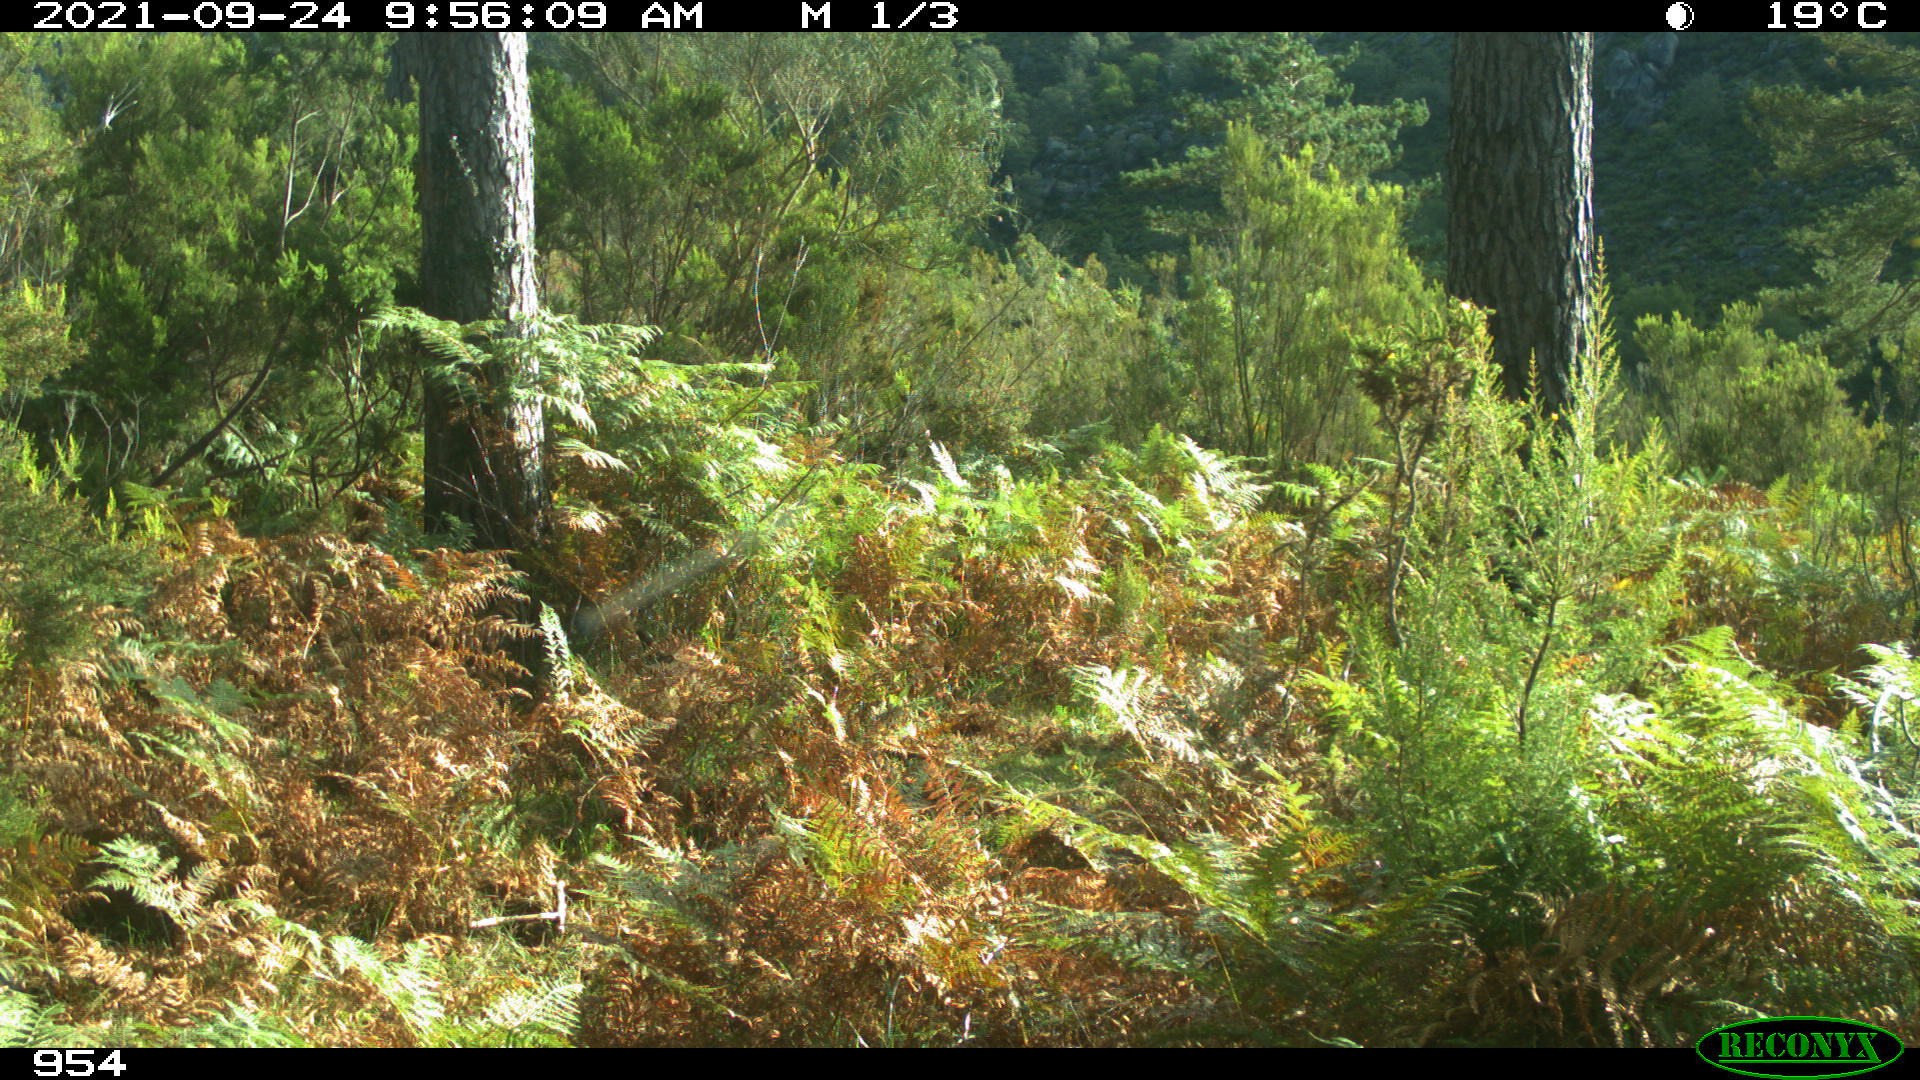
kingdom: Animalia
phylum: Chordata
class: Mammalia
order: Perissodactyla
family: Equidae
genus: Equus
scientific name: Equus caballus
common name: Horse
